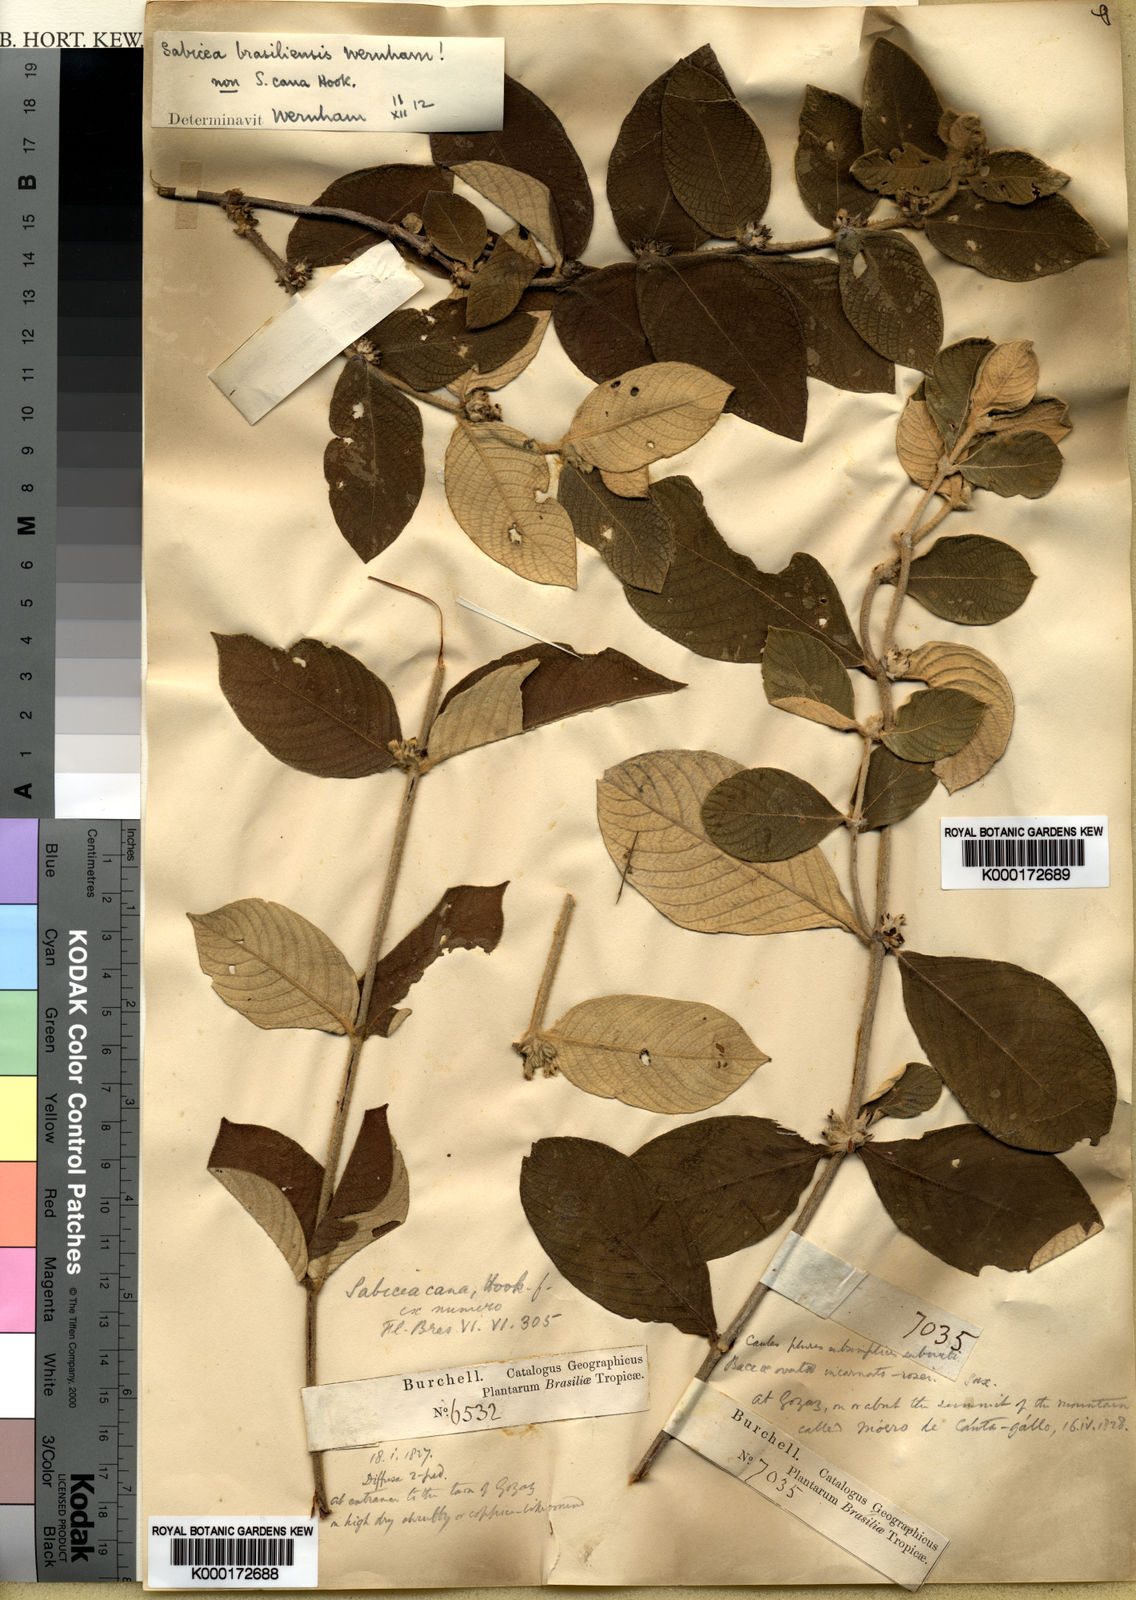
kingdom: Plantae
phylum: Tracheophyta
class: Magnoliopsida
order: Gentianales
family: Rubiaceae
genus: Sabicea
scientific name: Sabicea brasiliensis
